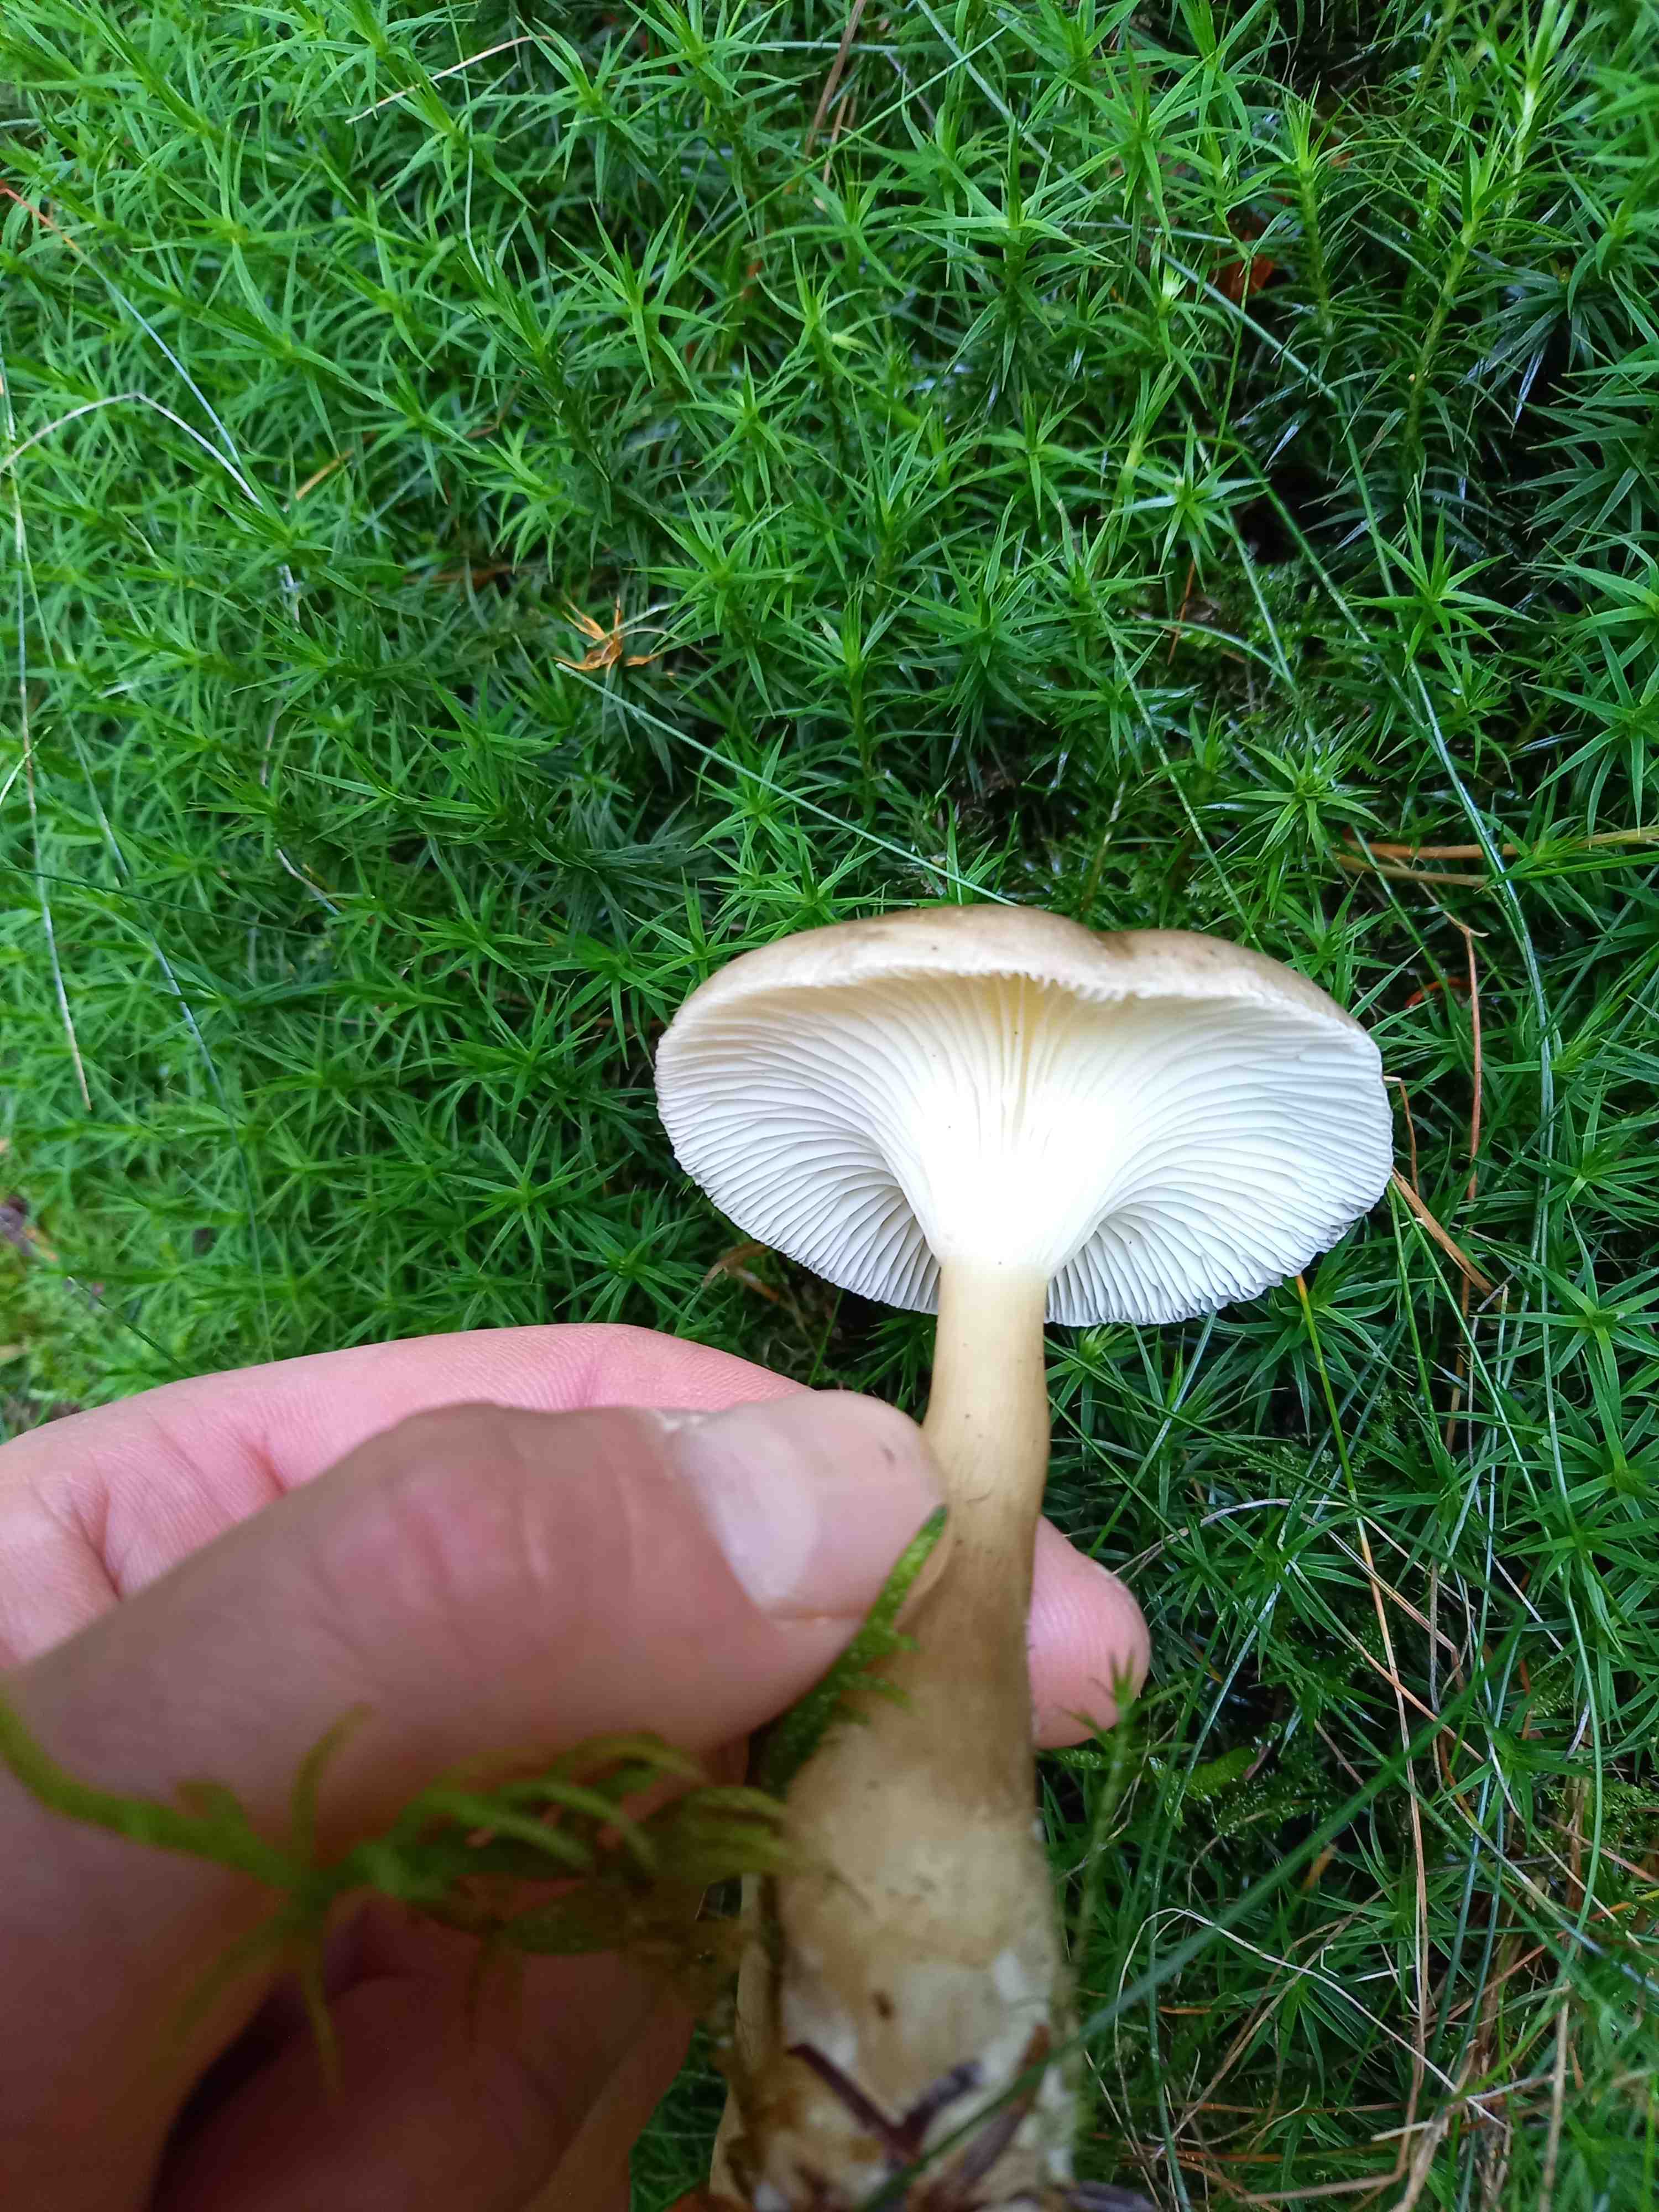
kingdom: Fungi
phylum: Basidiomycota
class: Agaricomycetes
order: Agaricales
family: Hygrophoraceae
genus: Ampulloclitocybe
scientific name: Ampulloclitocybe clavipes
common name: køllefod
